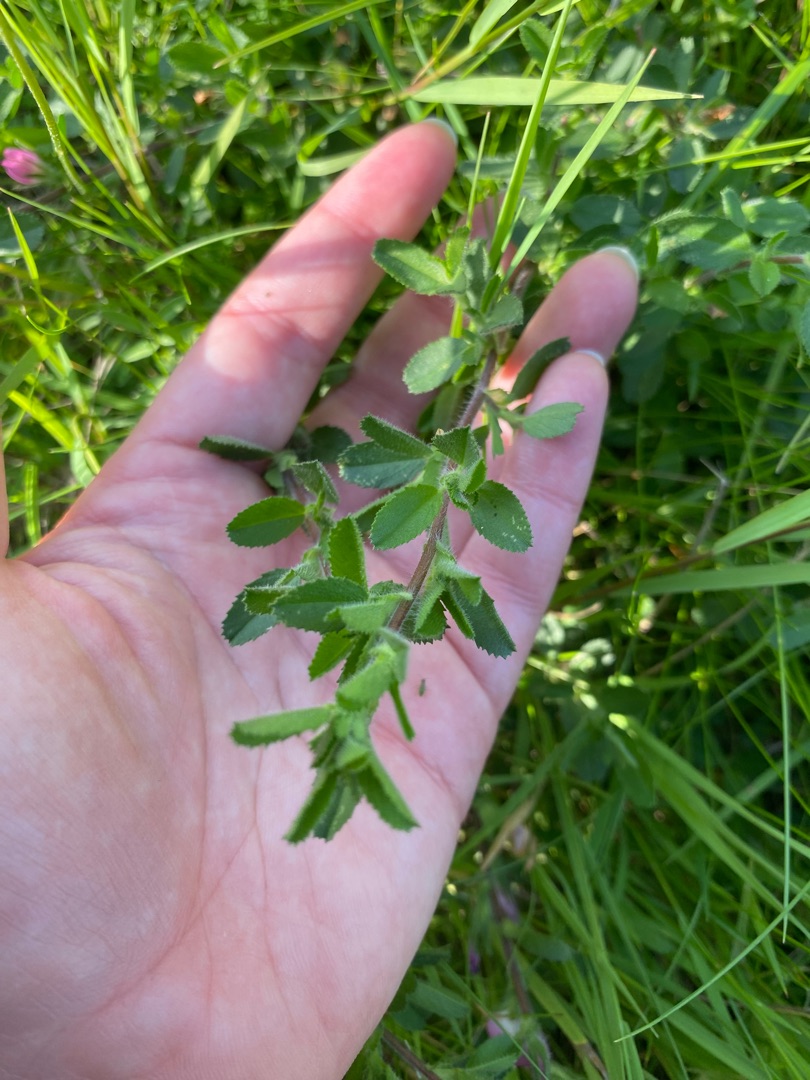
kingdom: Plantae
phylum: Tracheophyta
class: Magnoliopsida
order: Fabales
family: Fabaceae
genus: Ononis
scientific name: Ononis spinosa
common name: Krageklo
